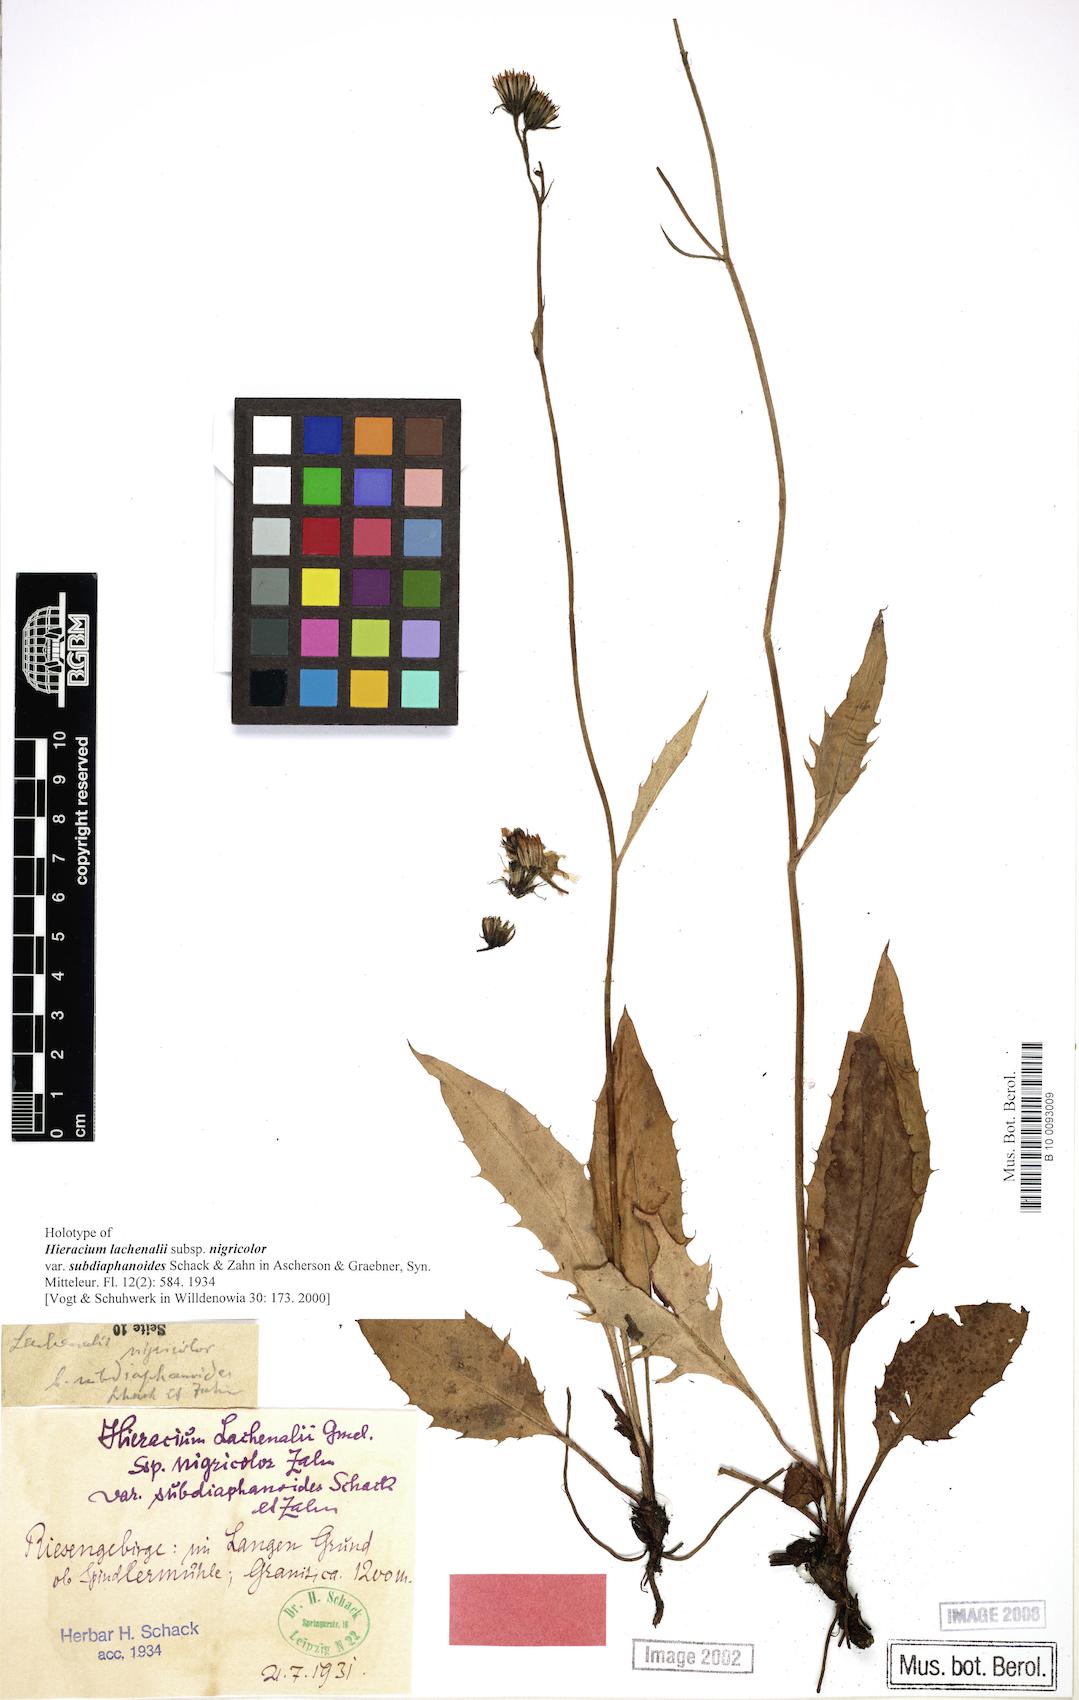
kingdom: Plantae
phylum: Tracheophyta
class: Magnoliopsida
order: Asterales
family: Asteraceae
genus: Hieracium
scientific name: Hieracium lachenalii
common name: Common hawkweed
